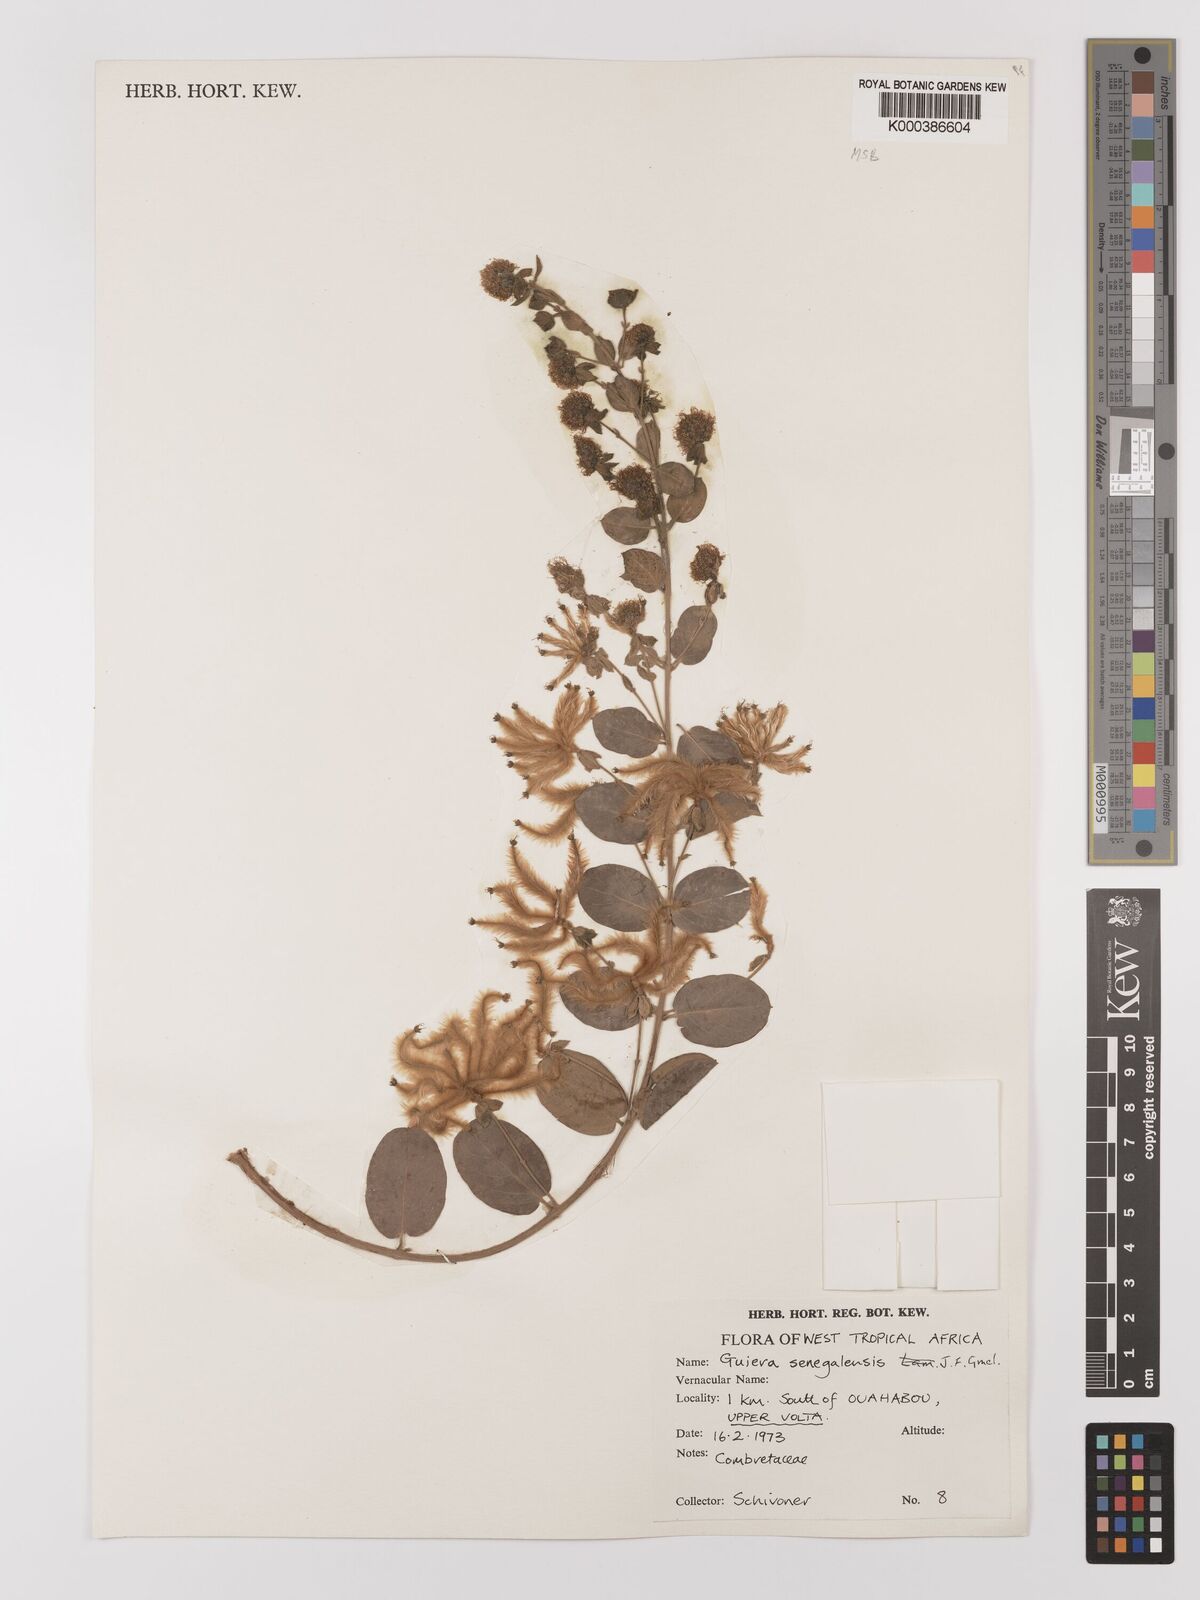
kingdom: Plantae
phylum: Tracheophyta
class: Magnoliopsida
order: Myrtales
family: Combretaceae
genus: Guiera
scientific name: Guiera senegalensis
